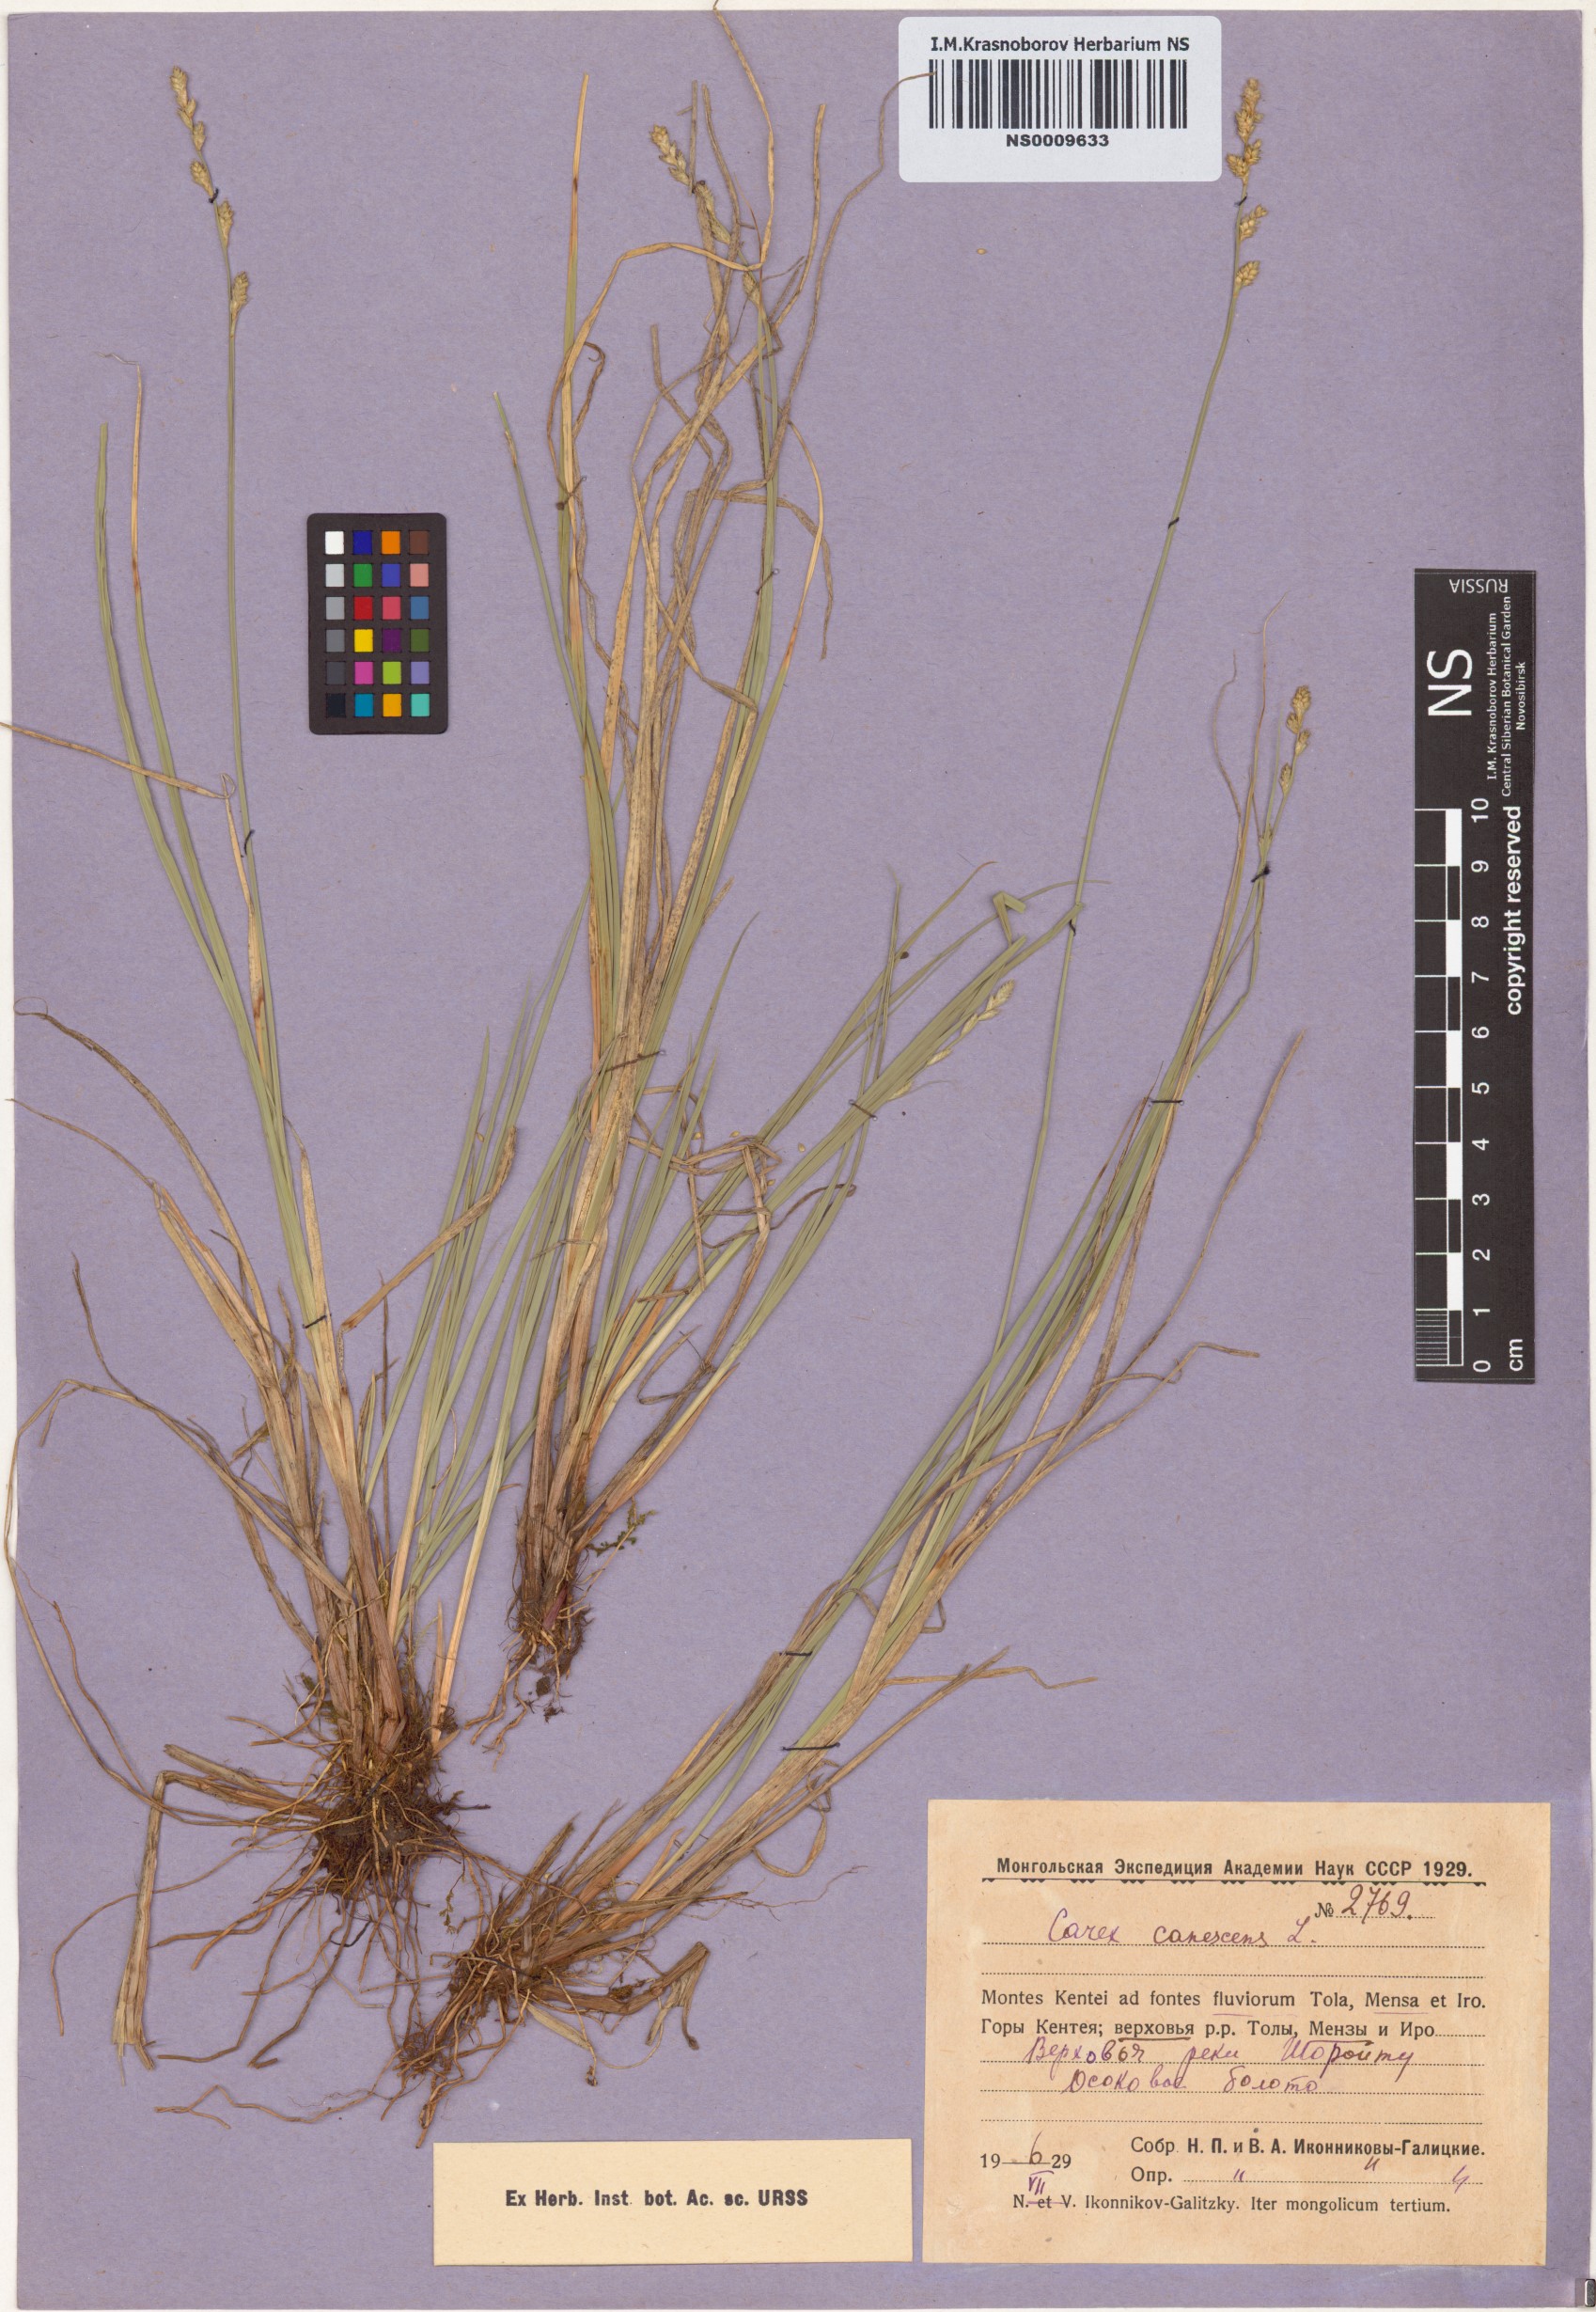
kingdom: Plantae
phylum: Tracheophyta
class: Liliopsida
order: Poales
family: Cyperaceae
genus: Carex
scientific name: Carex canescens
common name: White sedge
